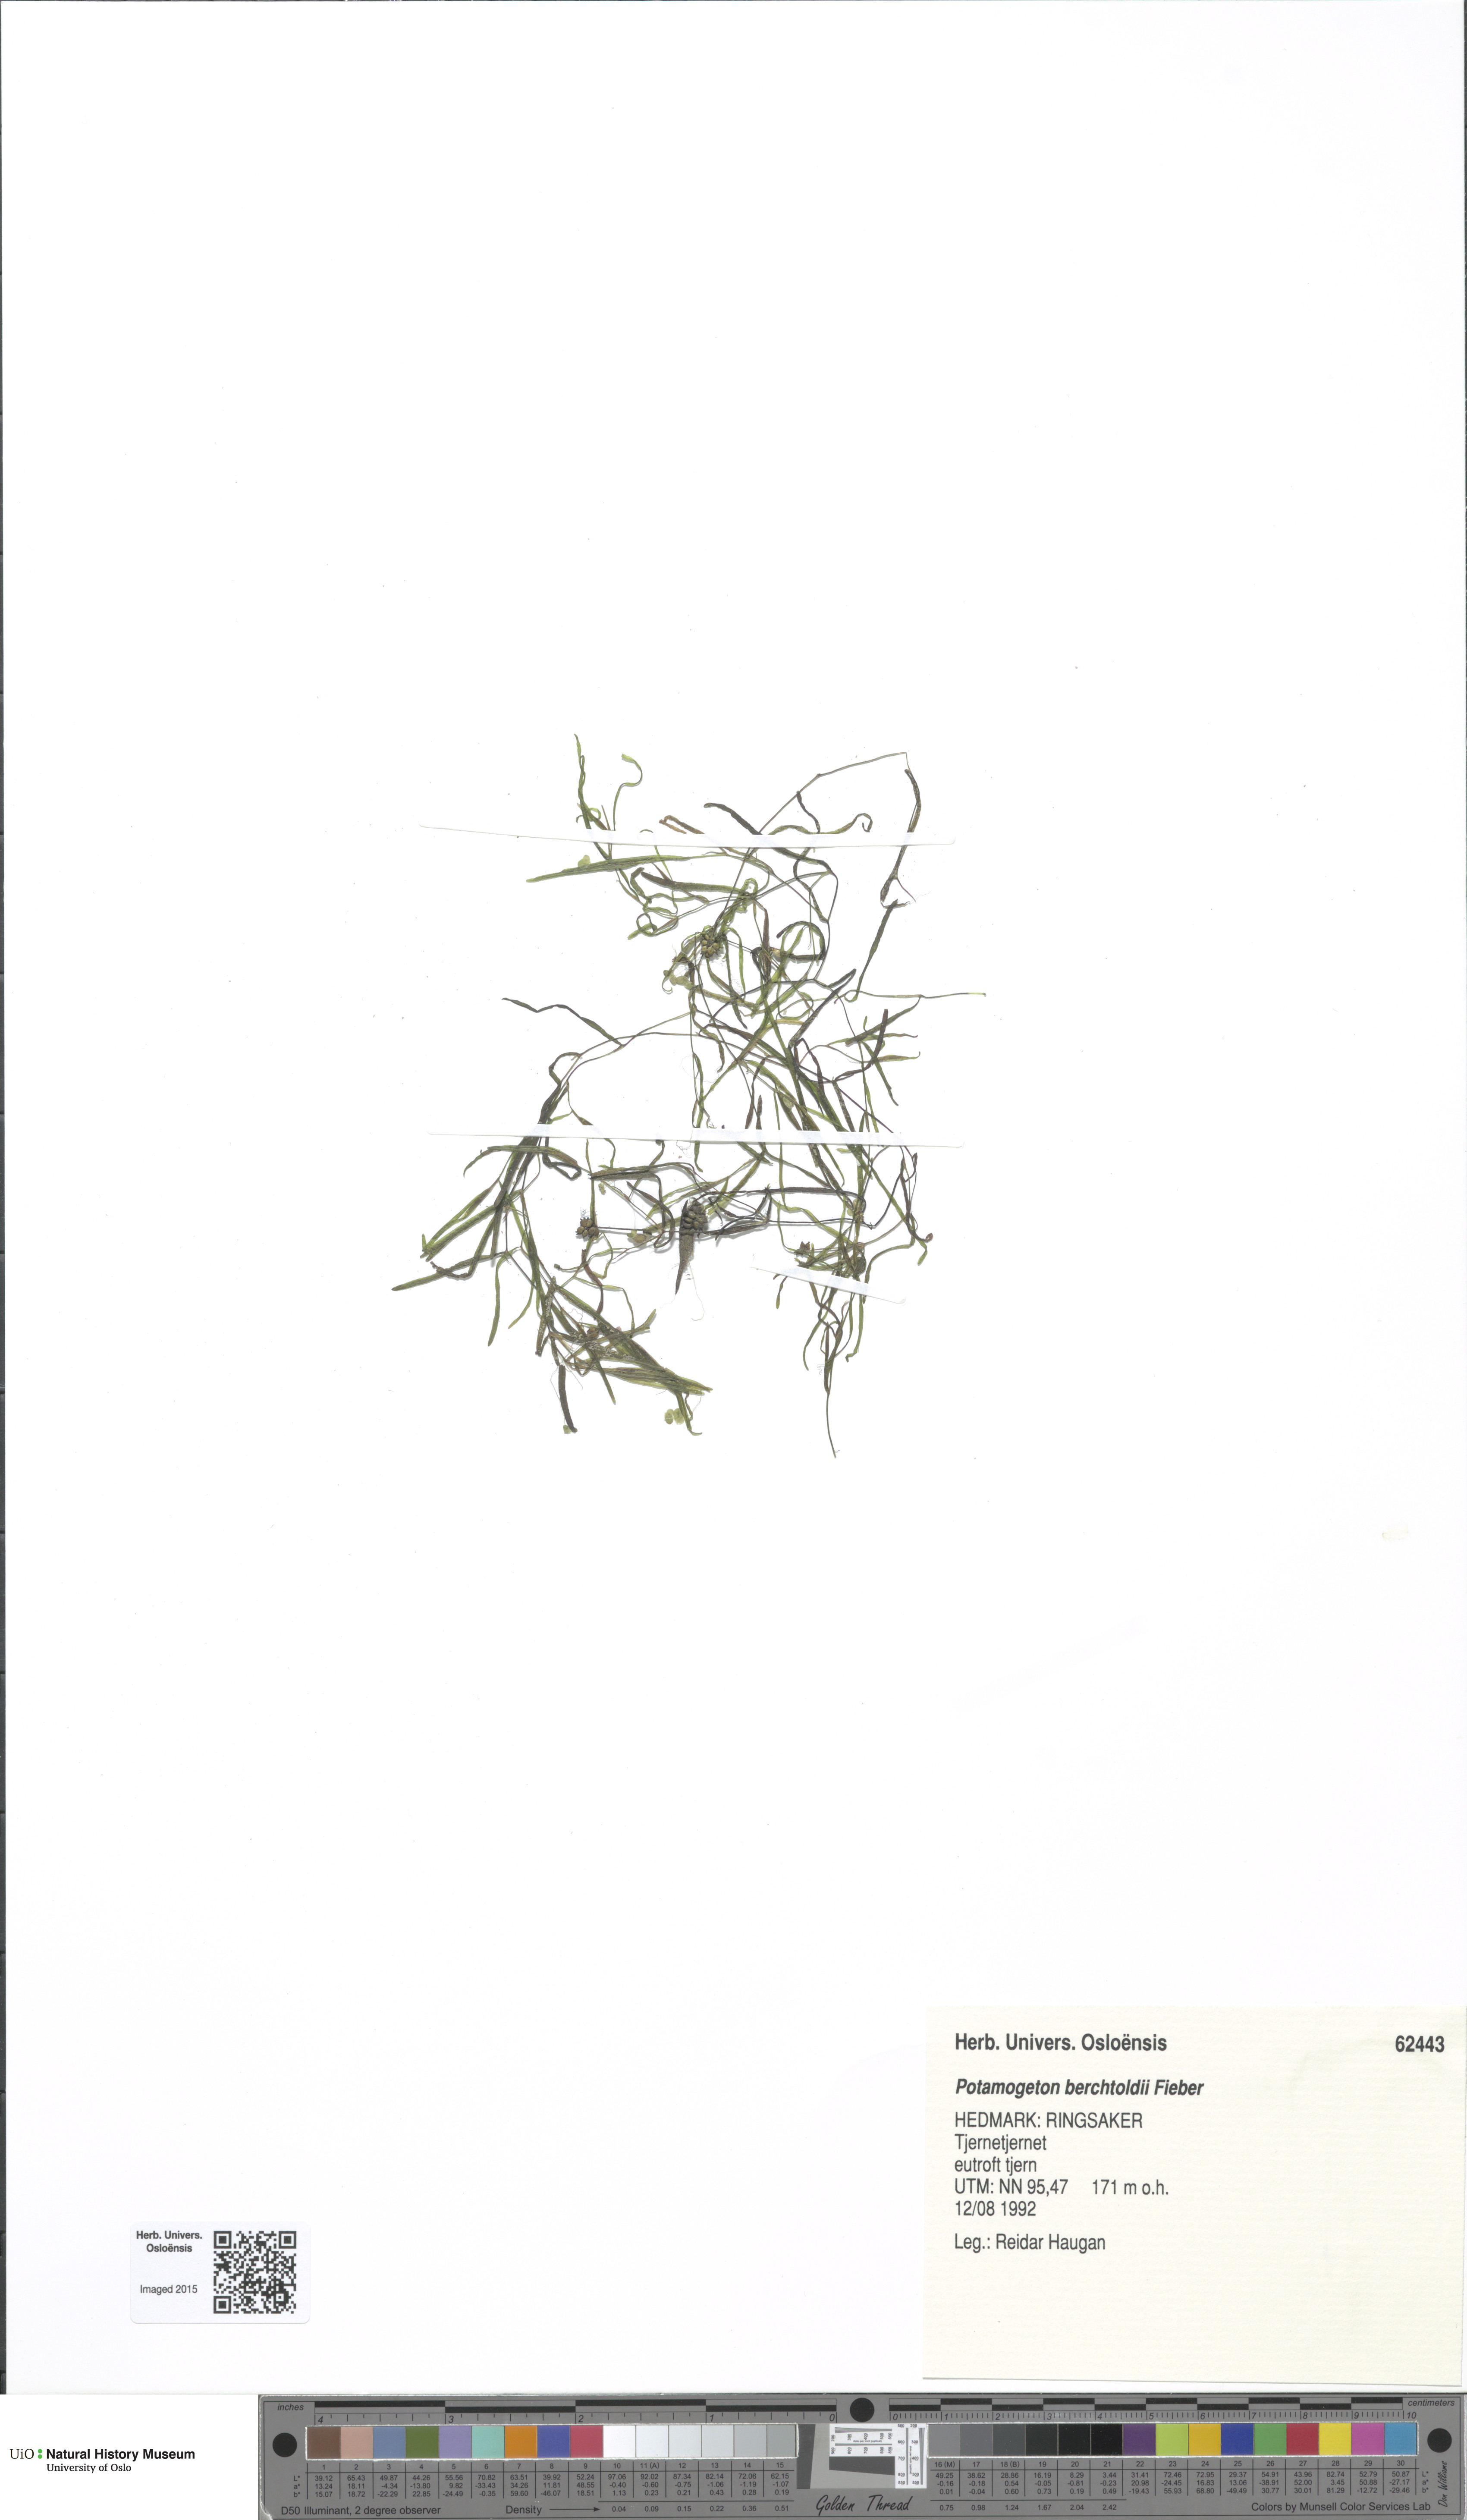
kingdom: Plantae
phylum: Tracheophyta
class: Liliopsida
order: Alismatales
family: Potamogetonaceae
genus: Potamogeton
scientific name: Potamogeton berchtoldii
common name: Small pondweed
